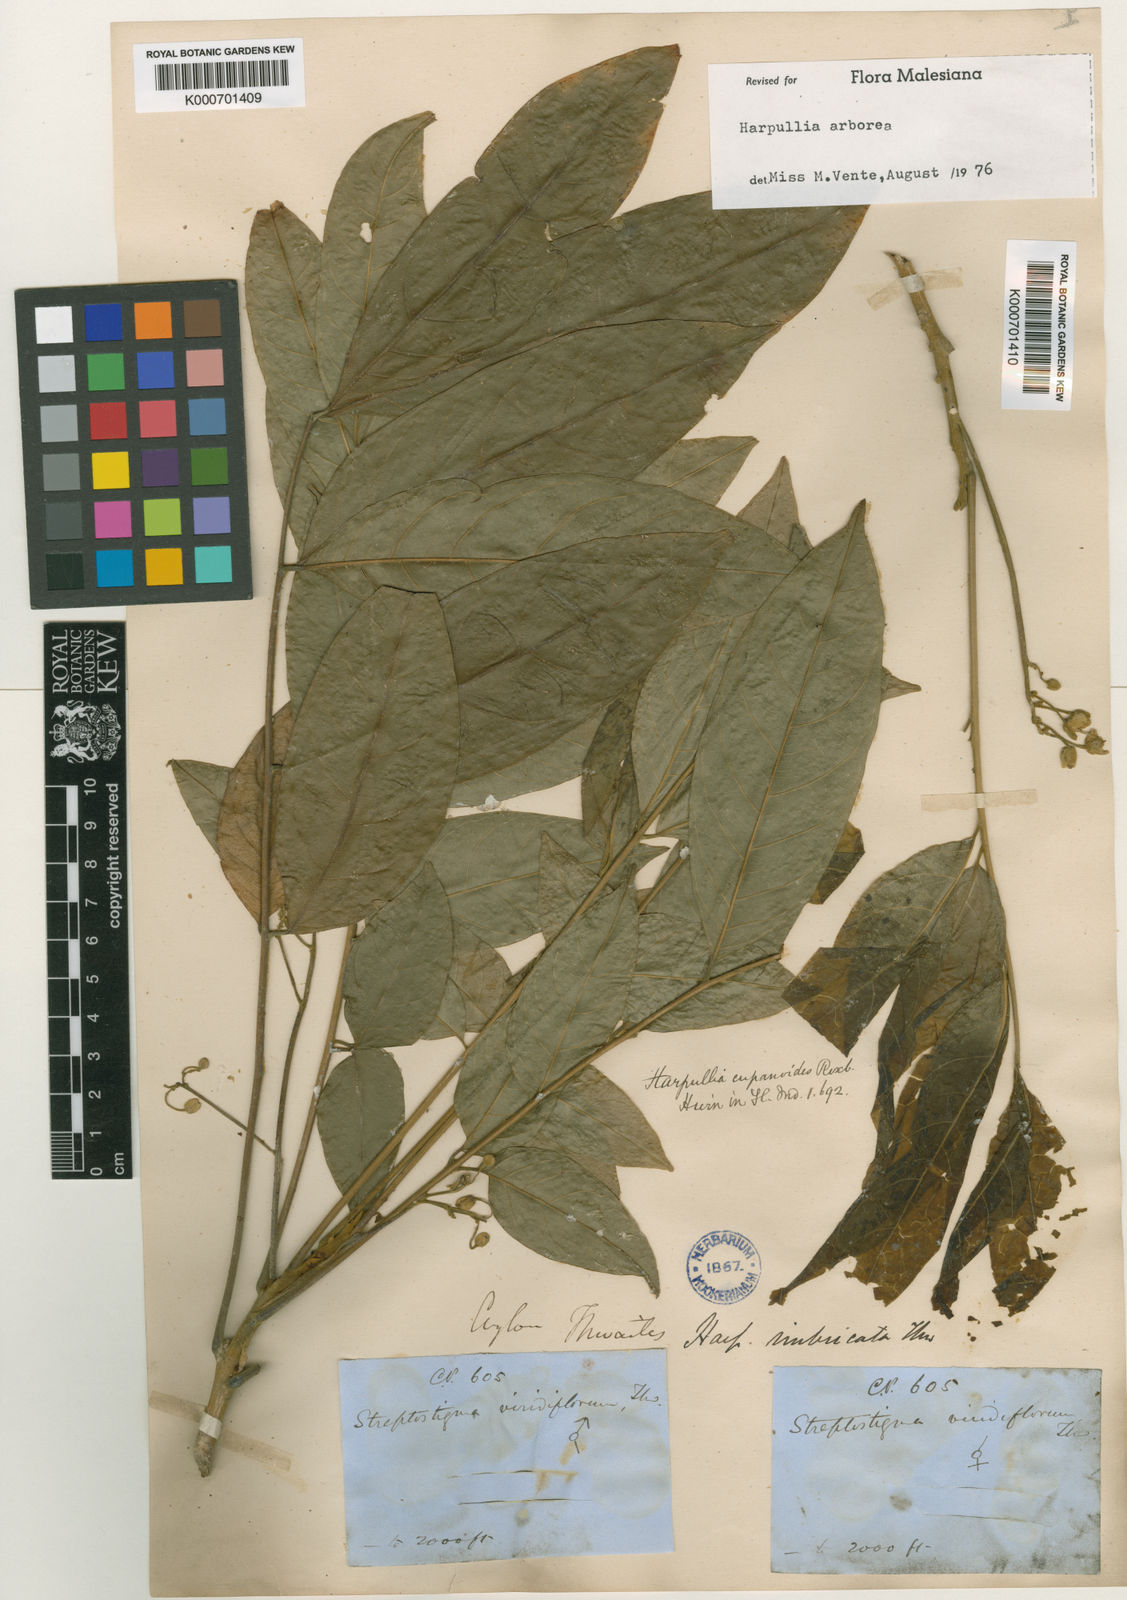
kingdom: Plantae
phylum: Tracheophyta
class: Magnoliopsida
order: Sapindales
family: Sapindaceae
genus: Harpullia
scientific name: Harpullia arborea
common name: Tulip-wood tree
